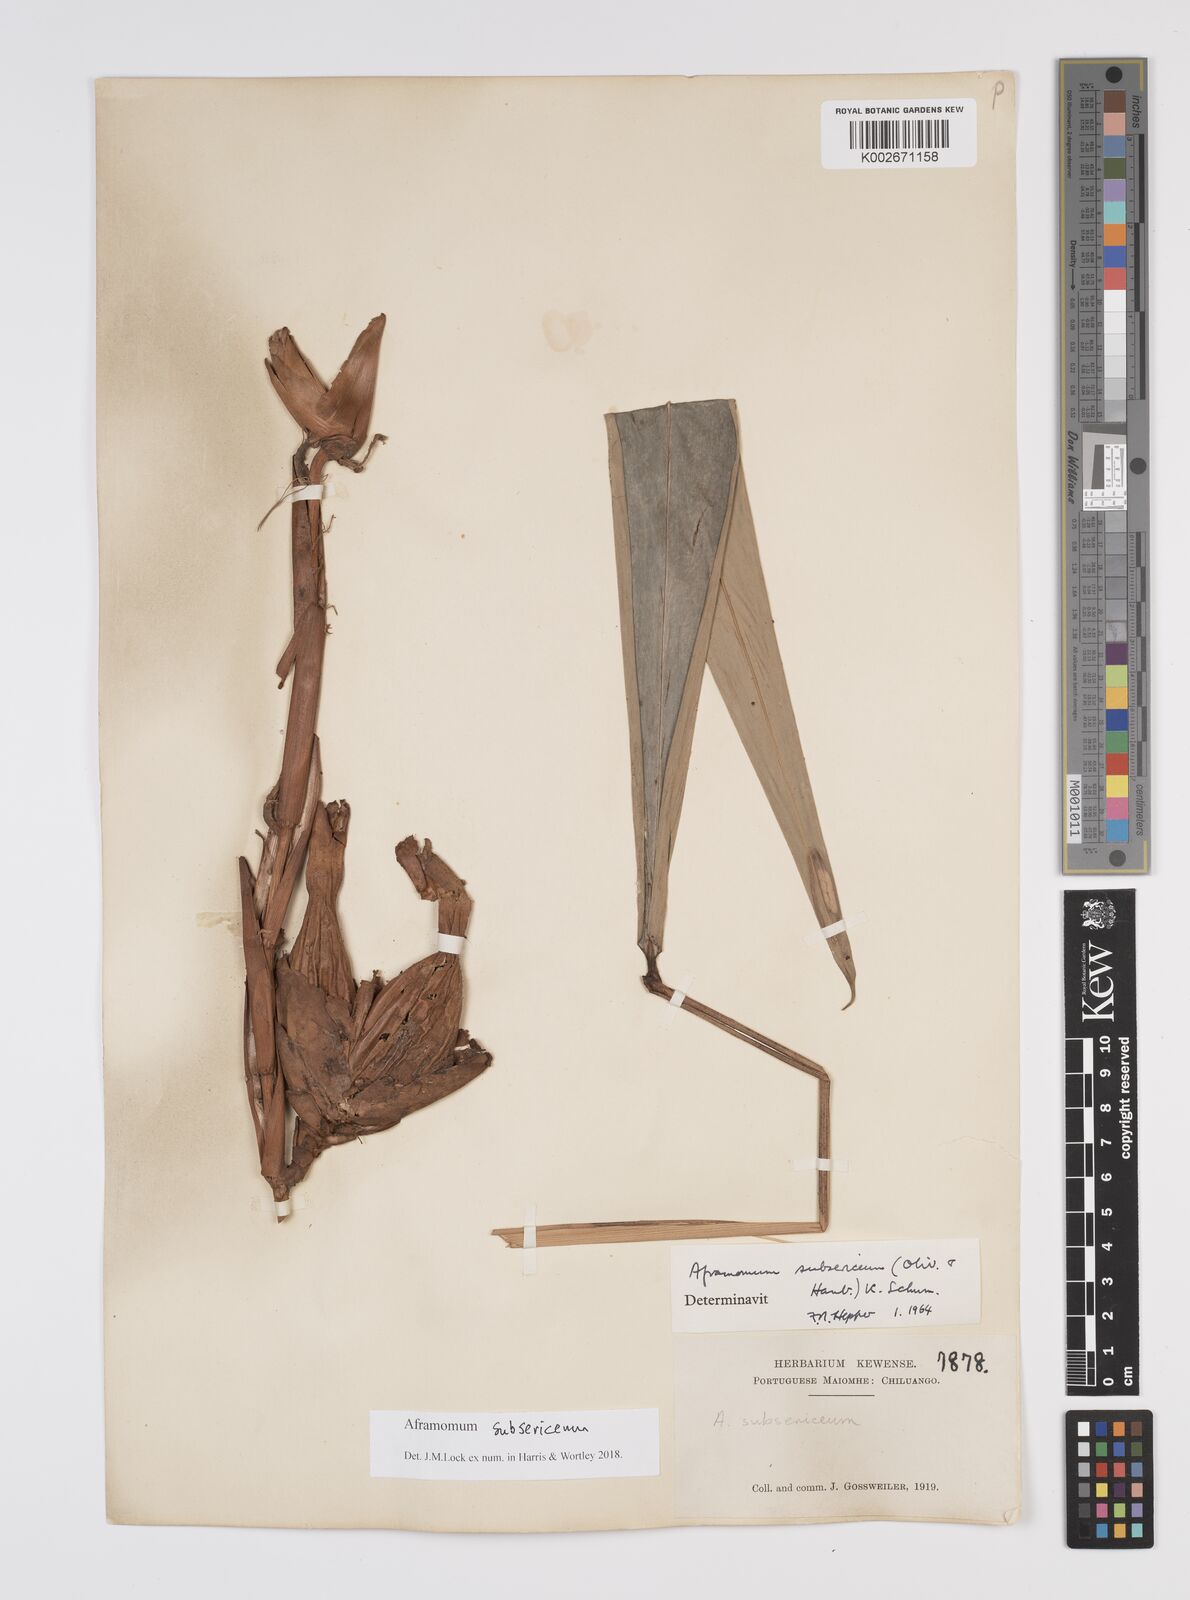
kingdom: Plantae
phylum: Tracheophyta
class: Liliopsida
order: Zingiberales
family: Zingiberaceae
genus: Aframomum
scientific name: Aframomum subsericeum
